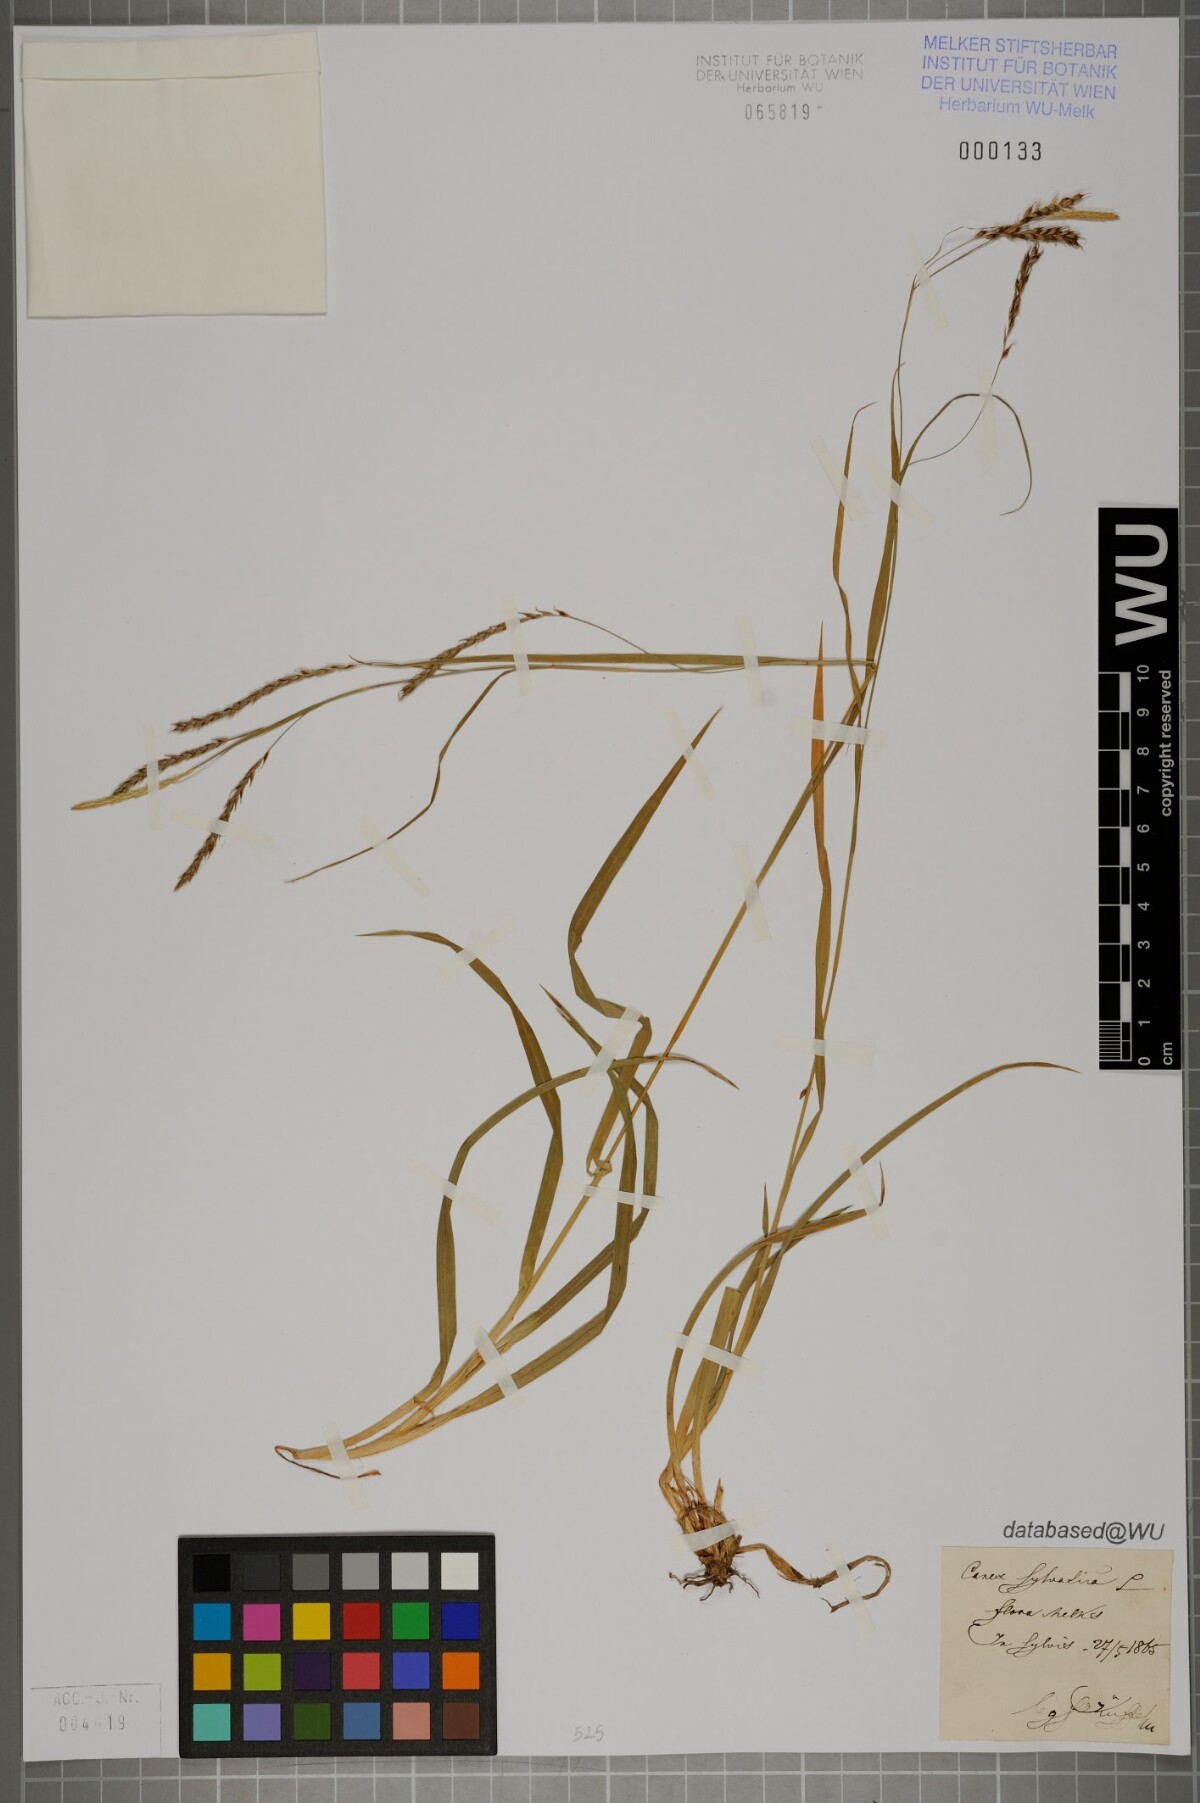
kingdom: Plantae
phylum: Tracheophyta
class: Liliopsida
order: Poales
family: Cyperaceae
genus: Carex
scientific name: Carex sylvatica
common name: Wood-sedge
